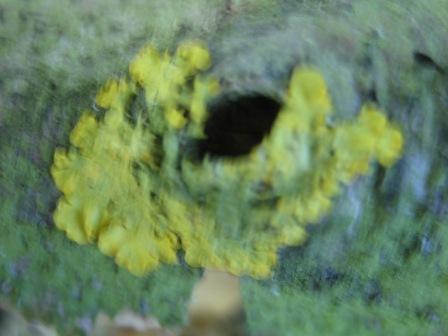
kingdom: Fungi
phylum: Ascomycota
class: Lecanoromycetes
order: Teloschistales
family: Teloschistaceae
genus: Xanthoria
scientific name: Xanthoria parietina
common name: almindelig væggelav
